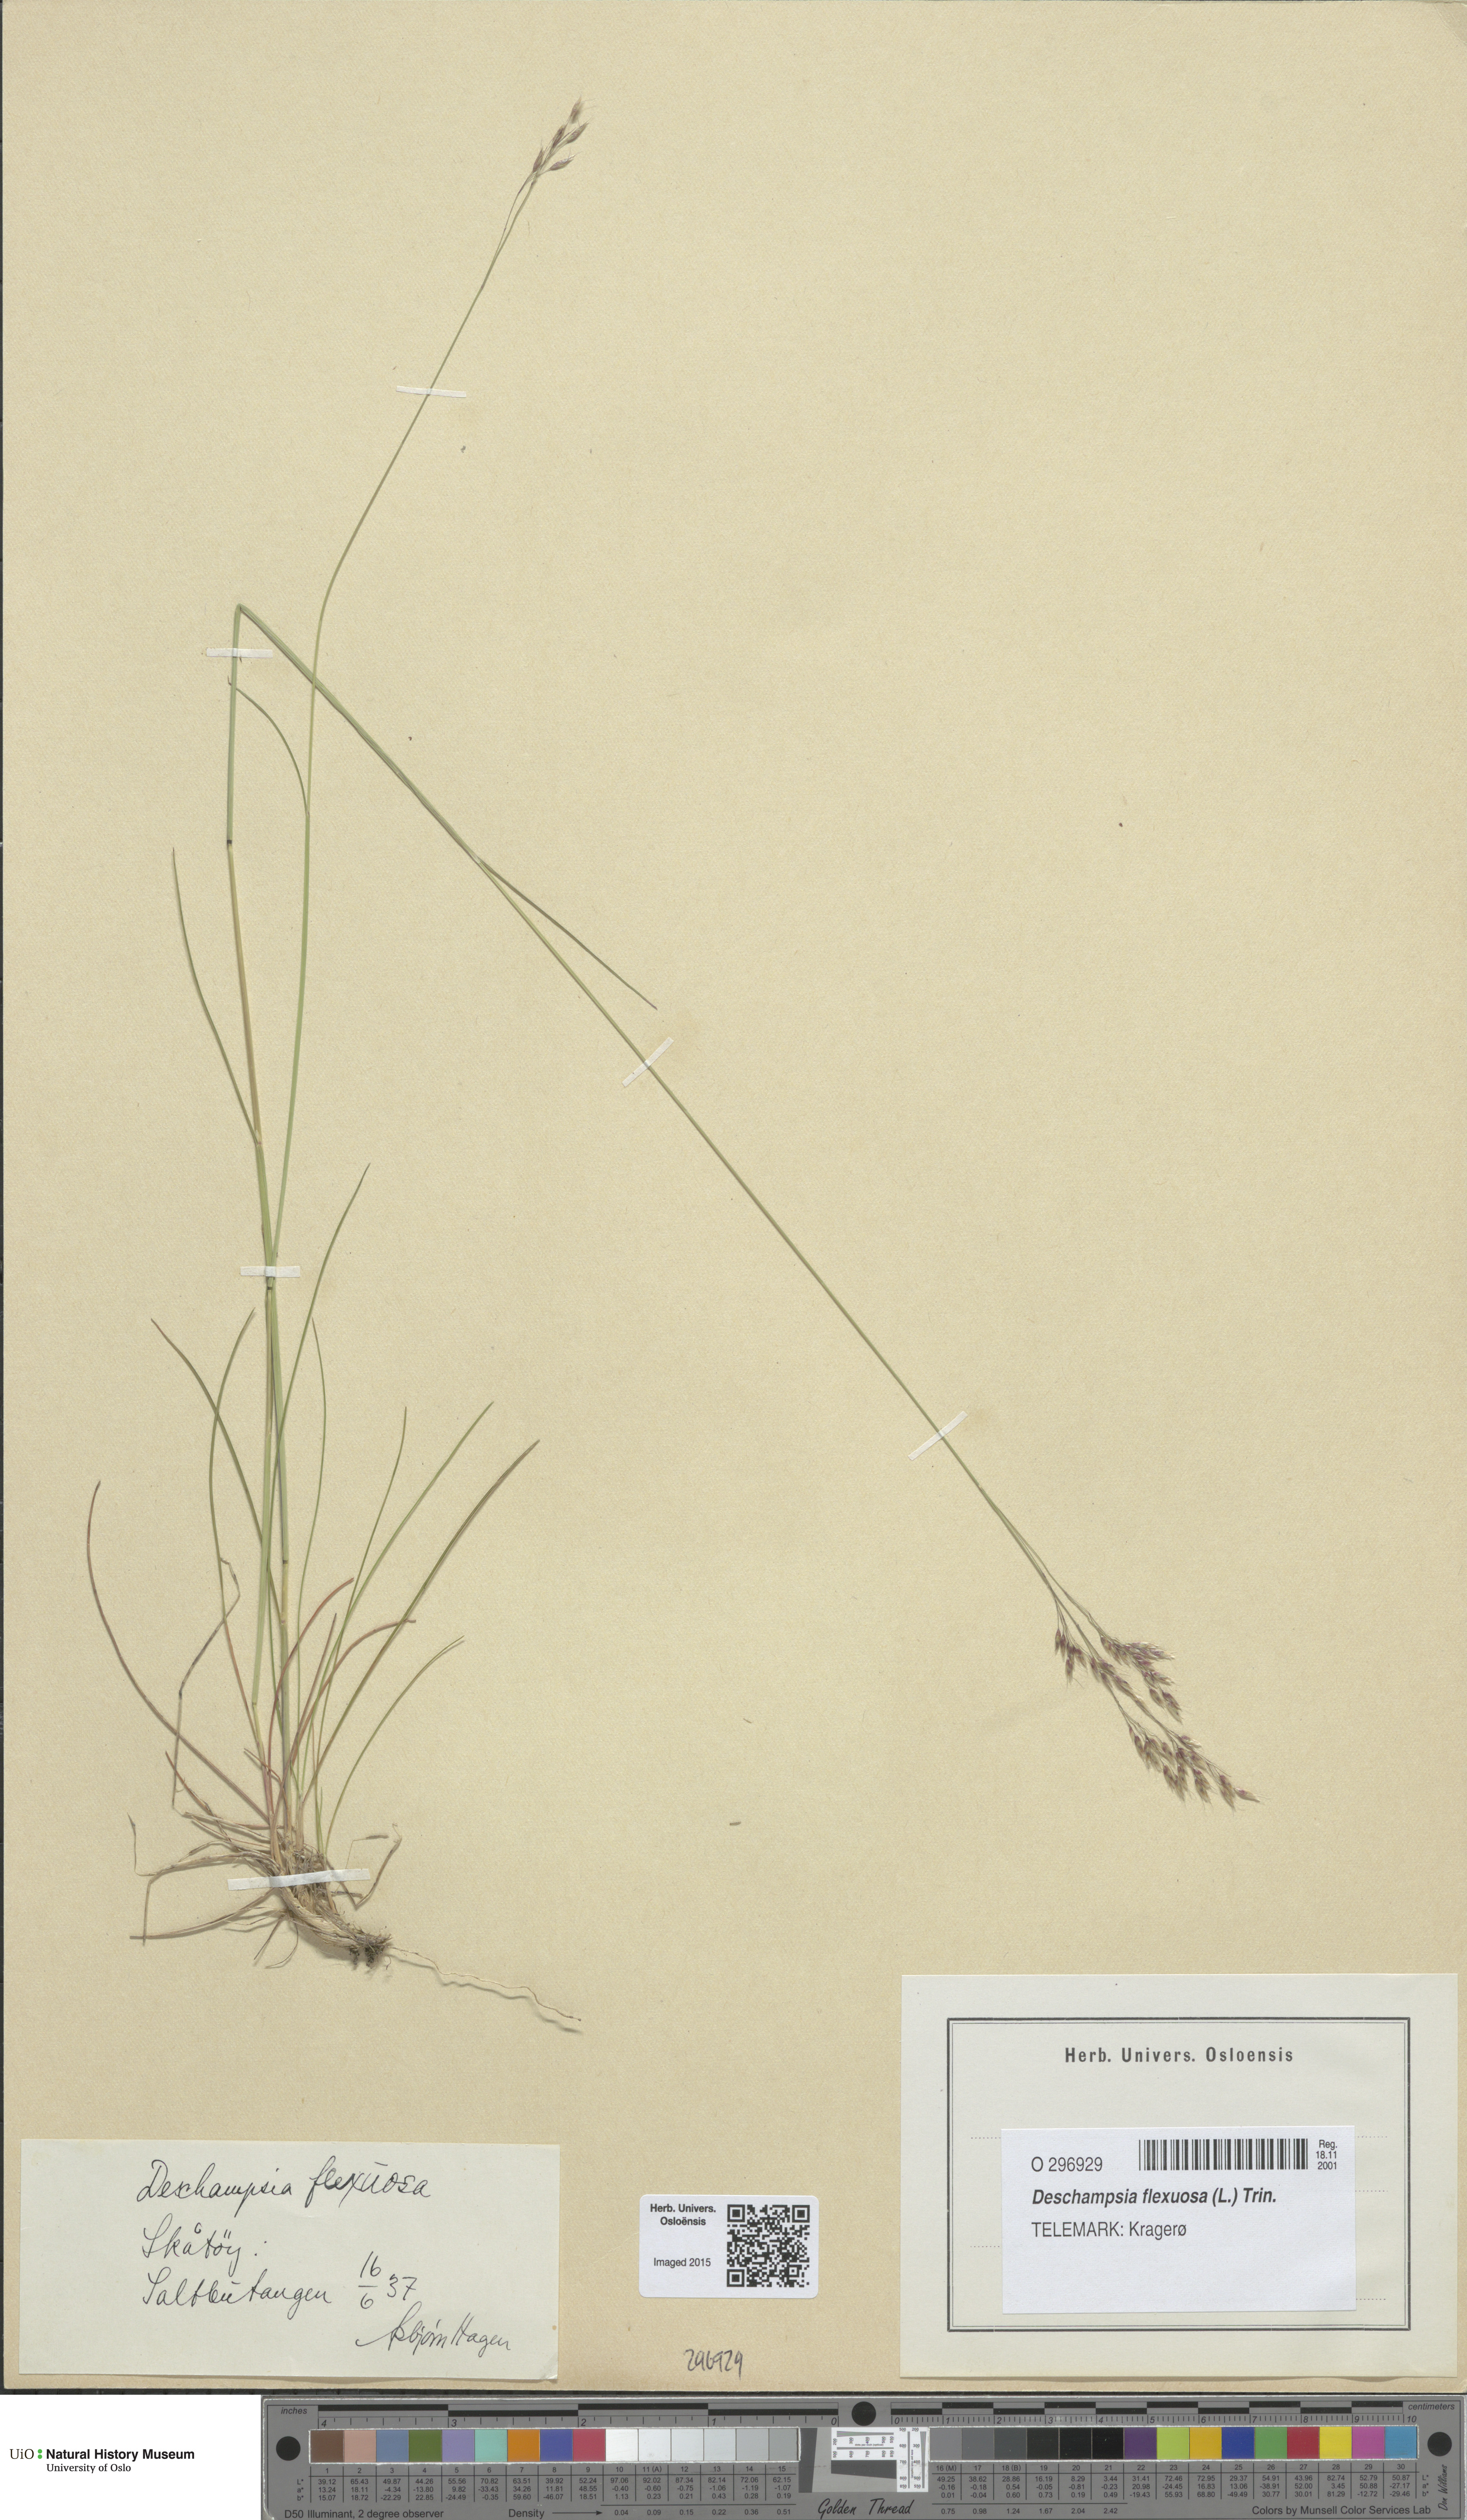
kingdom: Plantae
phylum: Tracheophyta
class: Liliopsida
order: Poales
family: Poaceae
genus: Avenella
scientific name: Avenella flexuosa
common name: Wavy hairgrass
